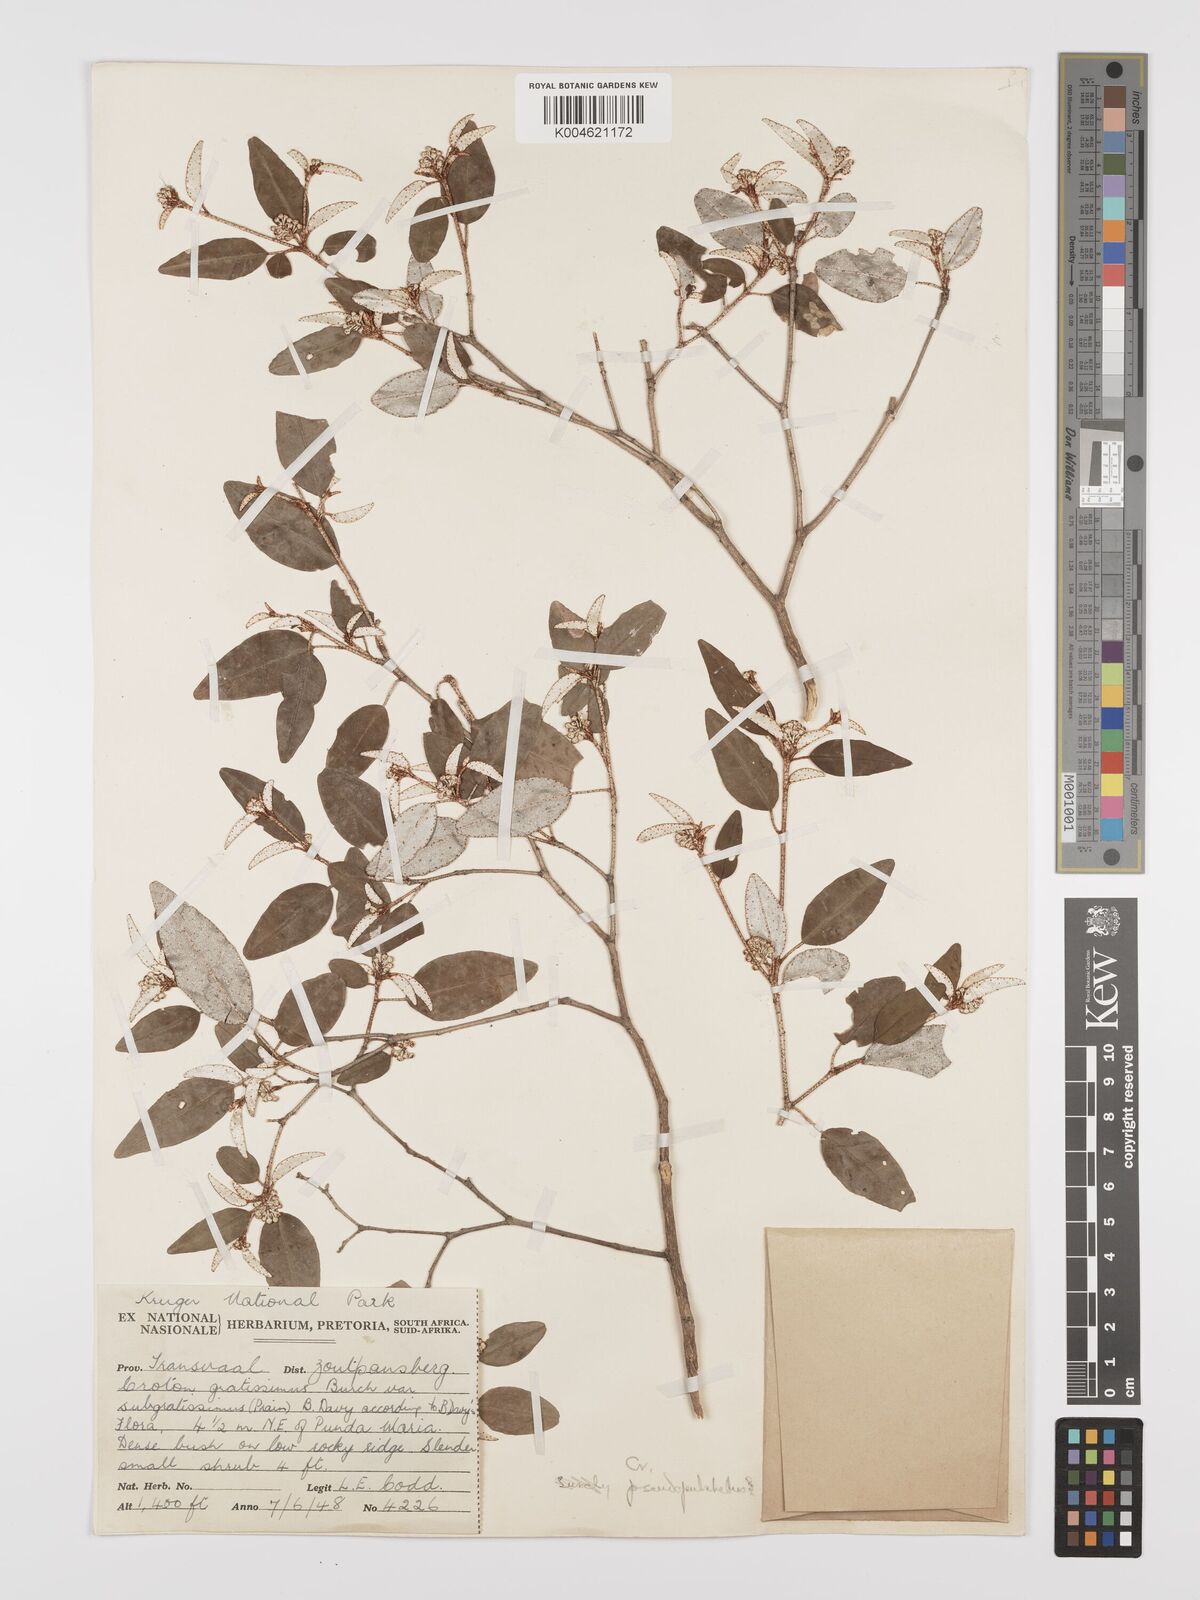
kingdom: Plantae
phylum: Tracheophyta
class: Magnoliopsida
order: Malpighiales
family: Euphorbiaceae
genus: Croton
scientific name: Croton pseudopulchellus
